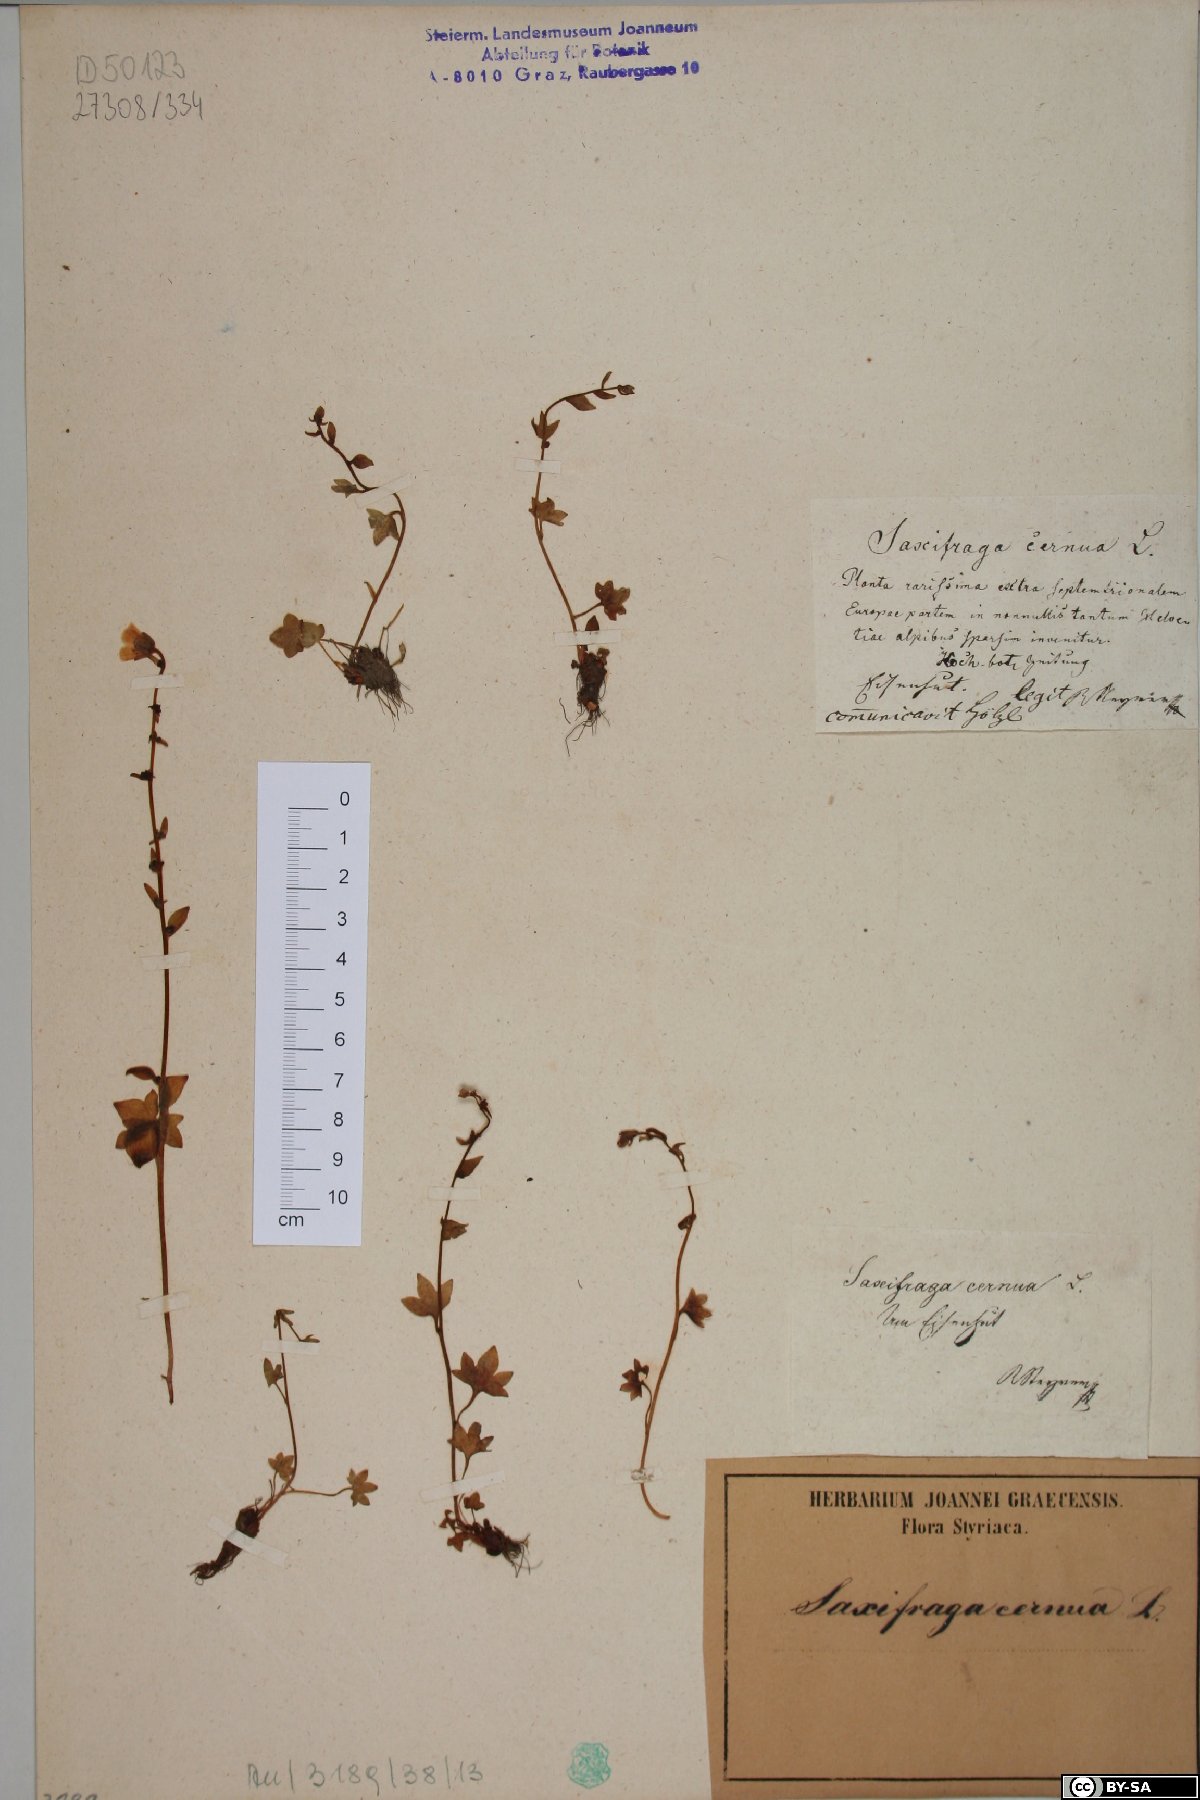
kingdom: Plantae
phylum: Tracheophyta
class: Magnoliopsida
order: Saxifragales
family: Saxifragaceae
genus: Saxifraga
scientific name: Saxifraga cernua
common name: Drooping saxifrage
